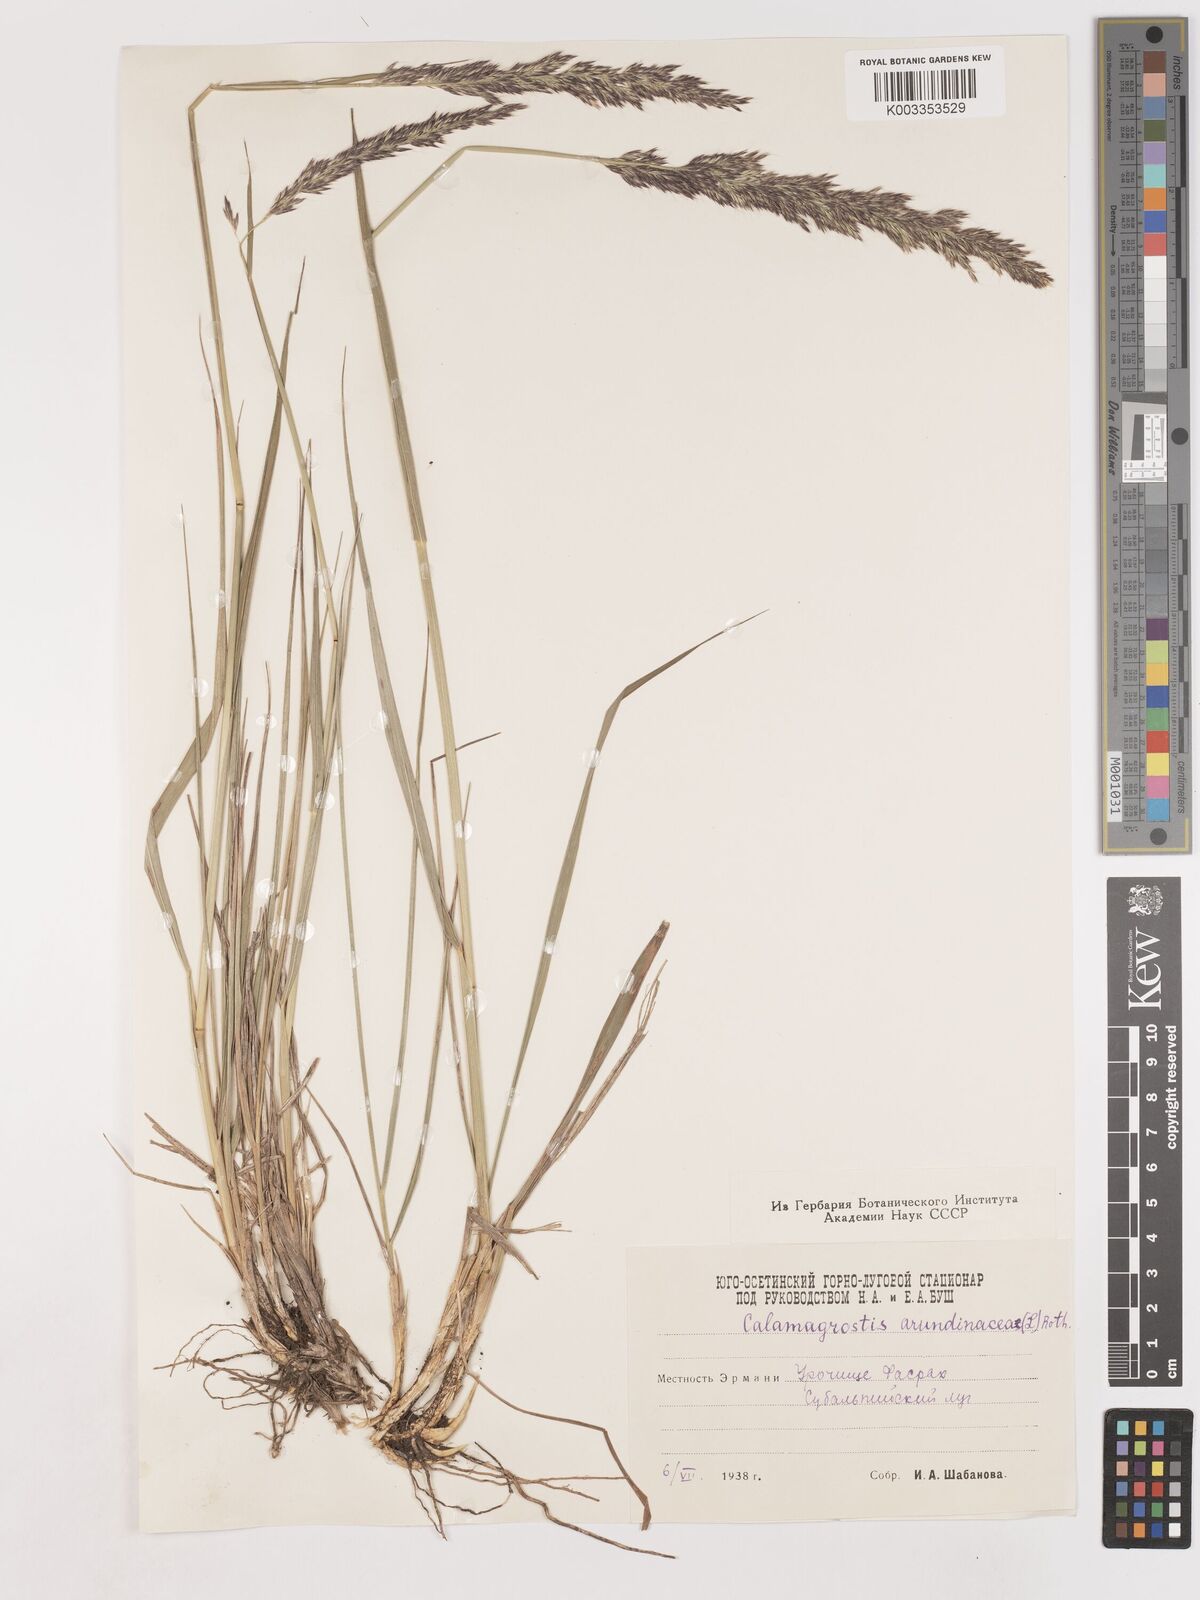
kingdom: Plantae
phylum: Tracheophyta
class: Liliopsida
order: Poales
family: Poaceae
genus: Calamagrostis
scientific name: Calamagrostis
